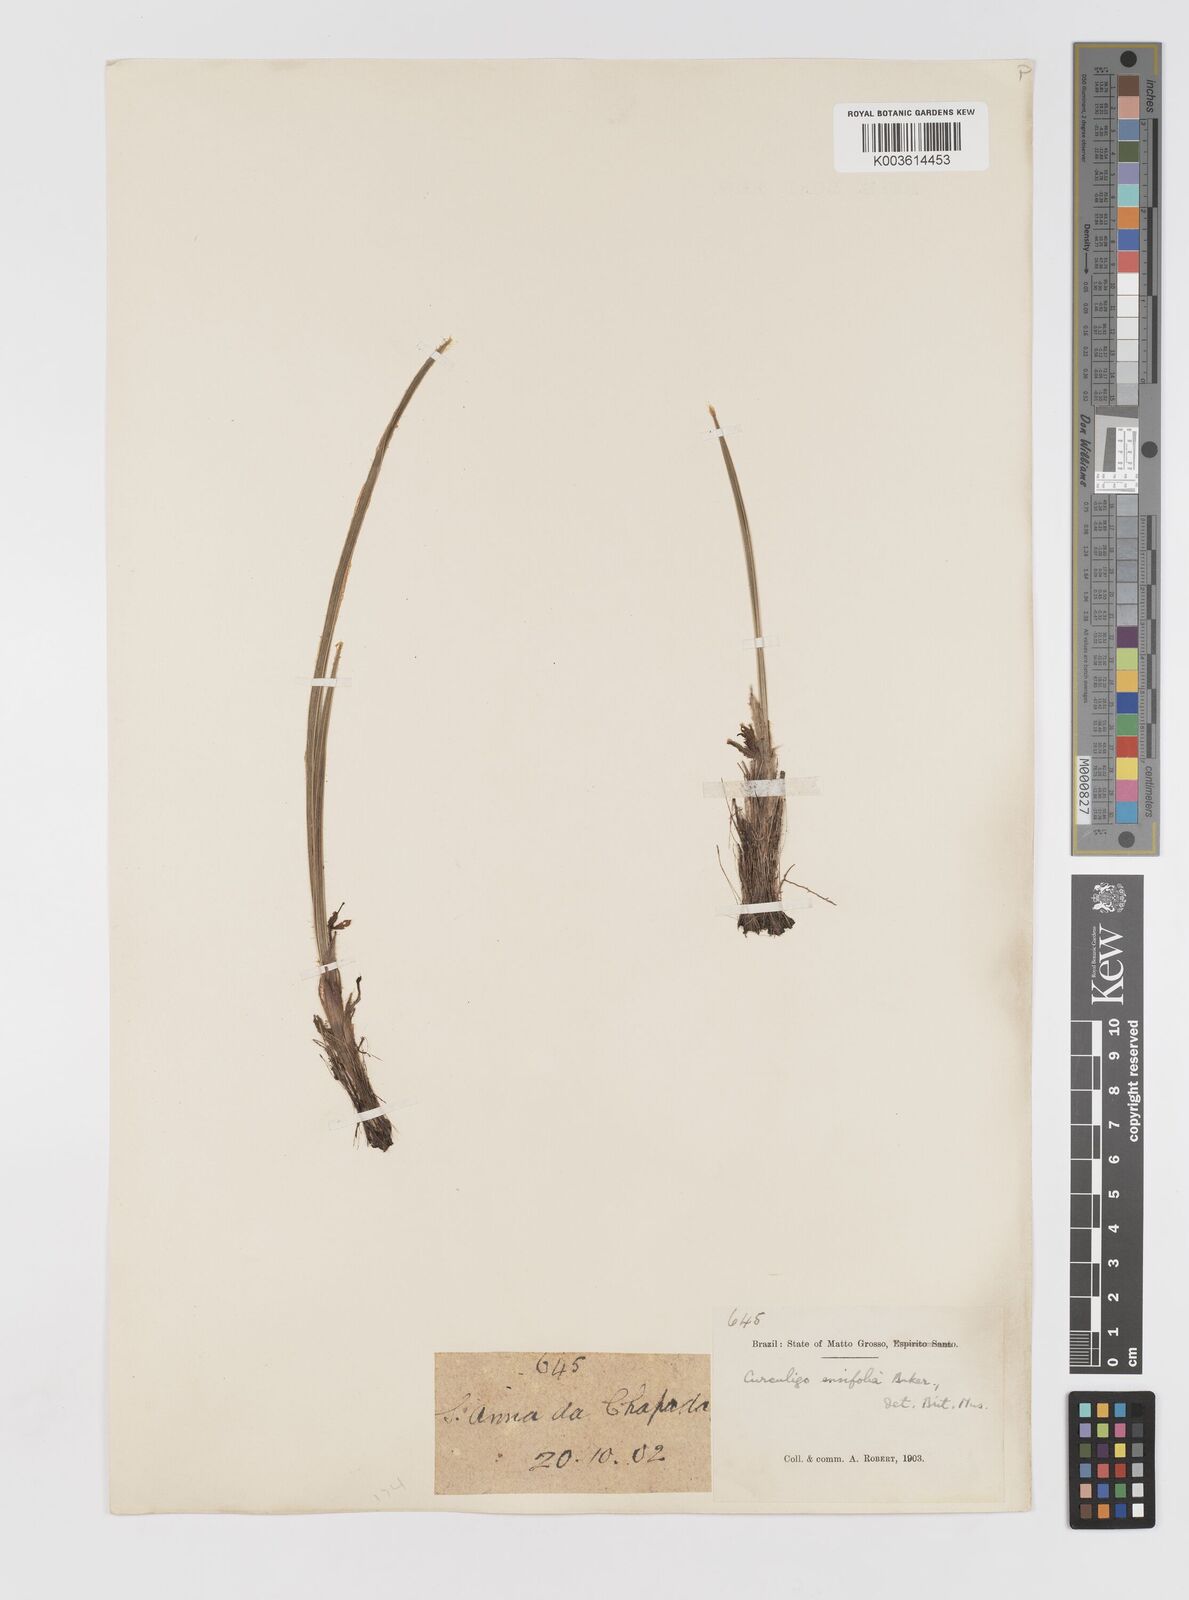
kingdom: Plantae
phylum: Tracheophyta
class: Liliopsida
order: Asparagales
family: Hypoxidaceae
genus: Curculigo
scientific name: Curculigo scorzonerifolia
